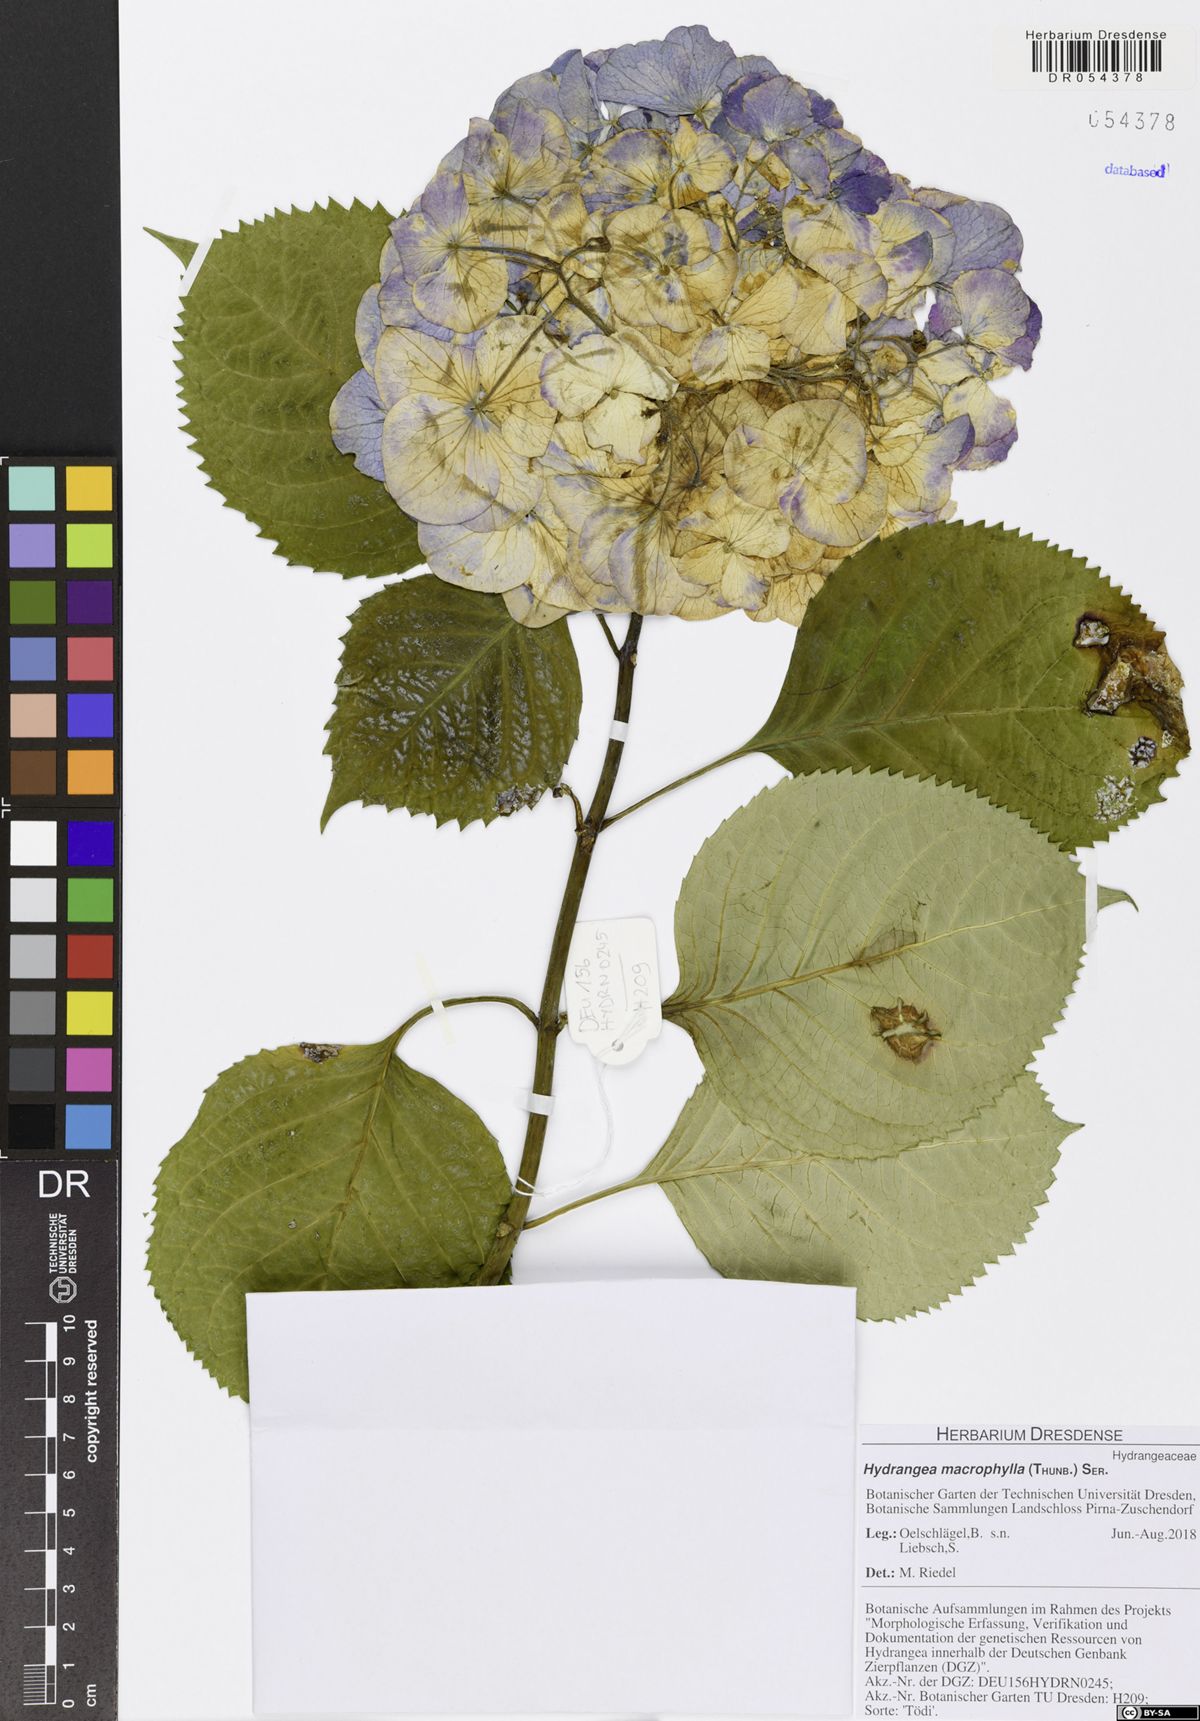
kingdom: Plantae
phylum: Tracheophyta
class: Magnoliopsida
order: Cornales
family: Hydrangeaceae
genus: Hydrangea
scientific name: Hydrangea macrophylla
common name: Hydrangea
